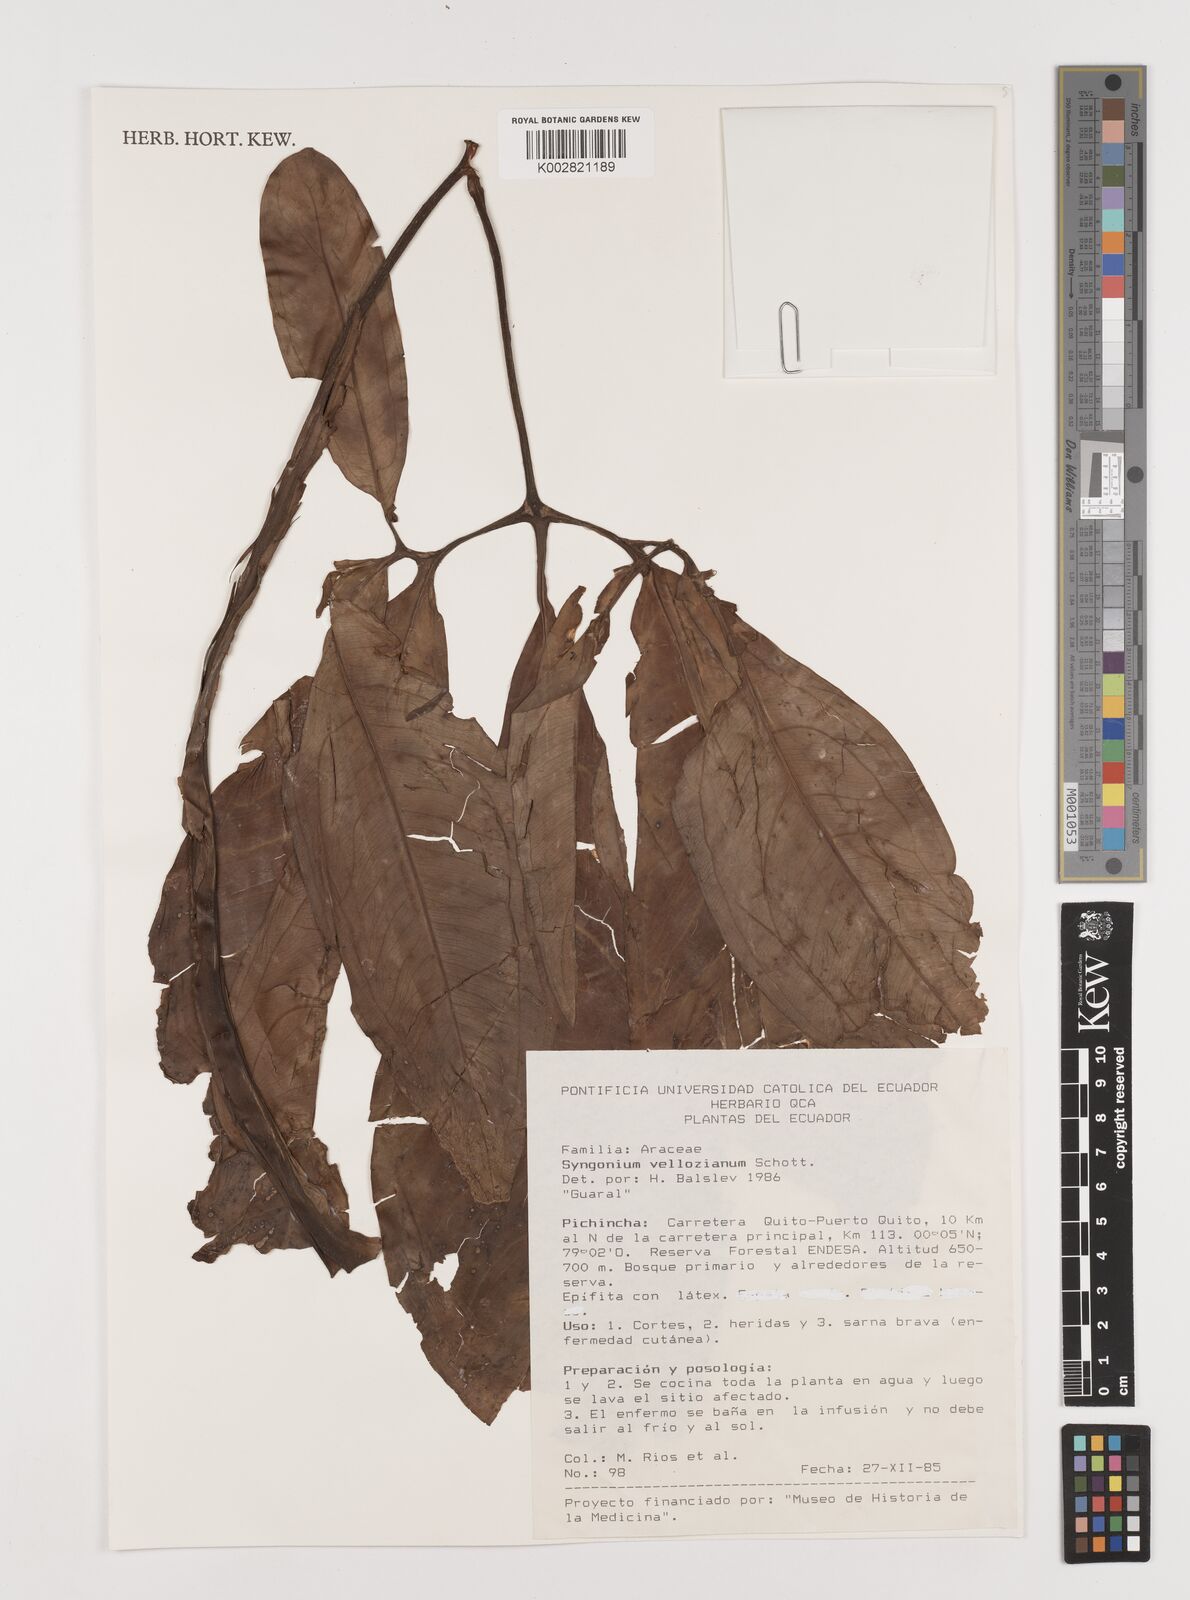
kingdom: Plantae
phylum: Tracheophyta
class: Liliopsida
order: Alismatales
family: Araceae
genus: Syngonium
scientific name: Syngonium podophyllum
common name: American evergreen
